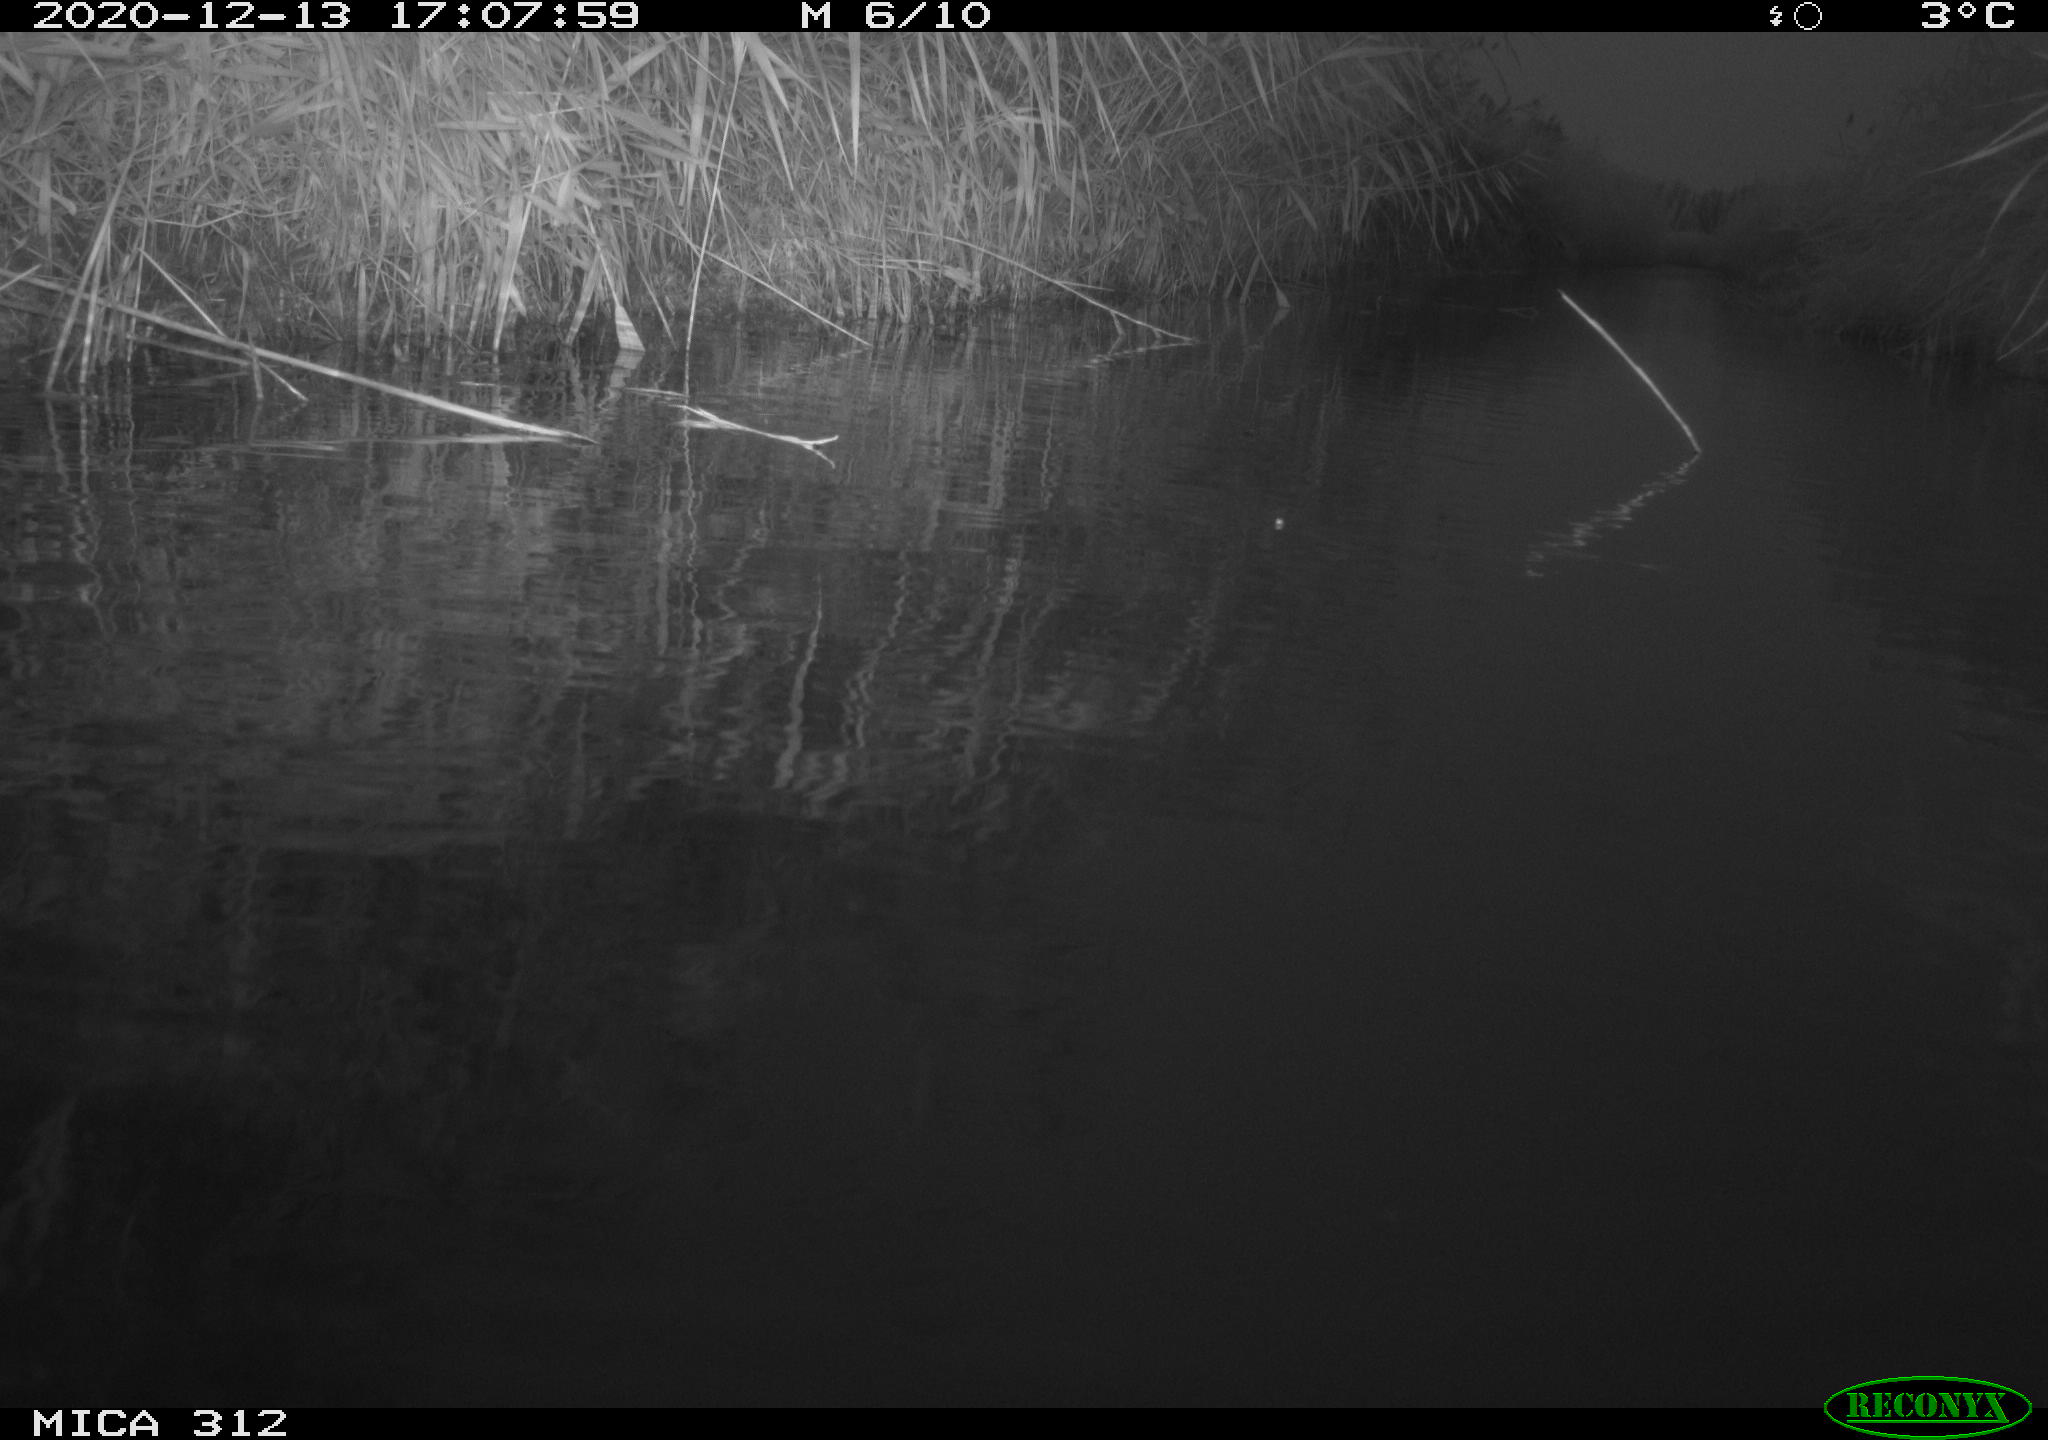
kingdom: Animalia
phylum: Chordata
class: Aves
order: Gruiformes
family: Rallidae
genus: Gallinula
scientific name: Gallinula chloropus
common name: Common moorhen
